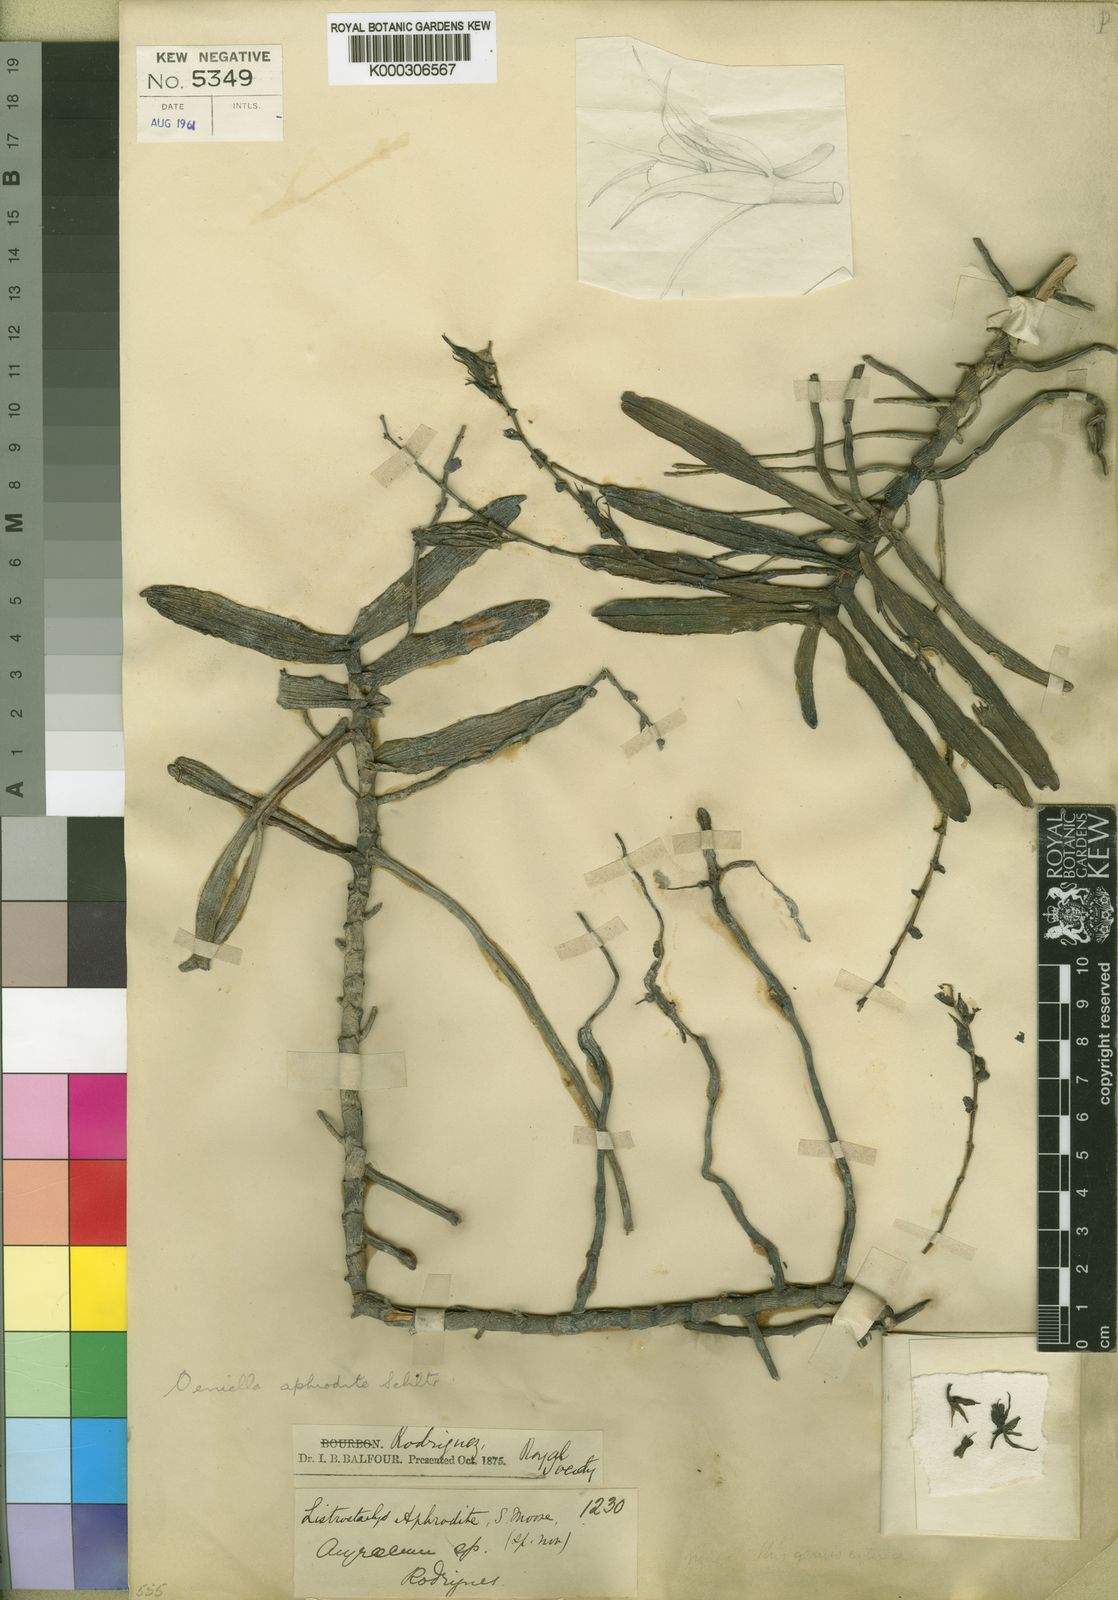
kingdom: Plantae
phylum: Tracheophyta
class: Liliopsida
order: Asparagales
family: Orchidaceae
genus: Oeoniella
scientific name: Oeoniella aphrodite
